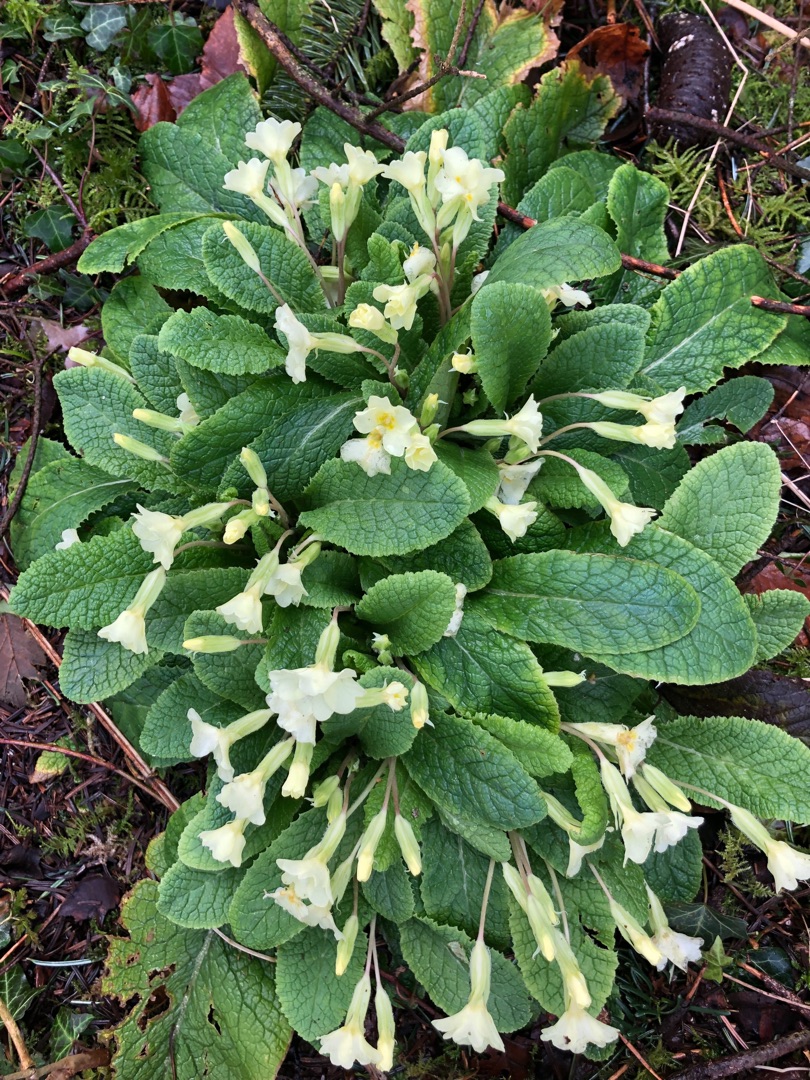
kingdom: Plantae
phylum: Tracheophyta
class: Magnoliopsida
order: Ericales
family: Primulaceae
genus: Primula
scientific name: Primula vulgaris
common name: Storblomstret kodriver
